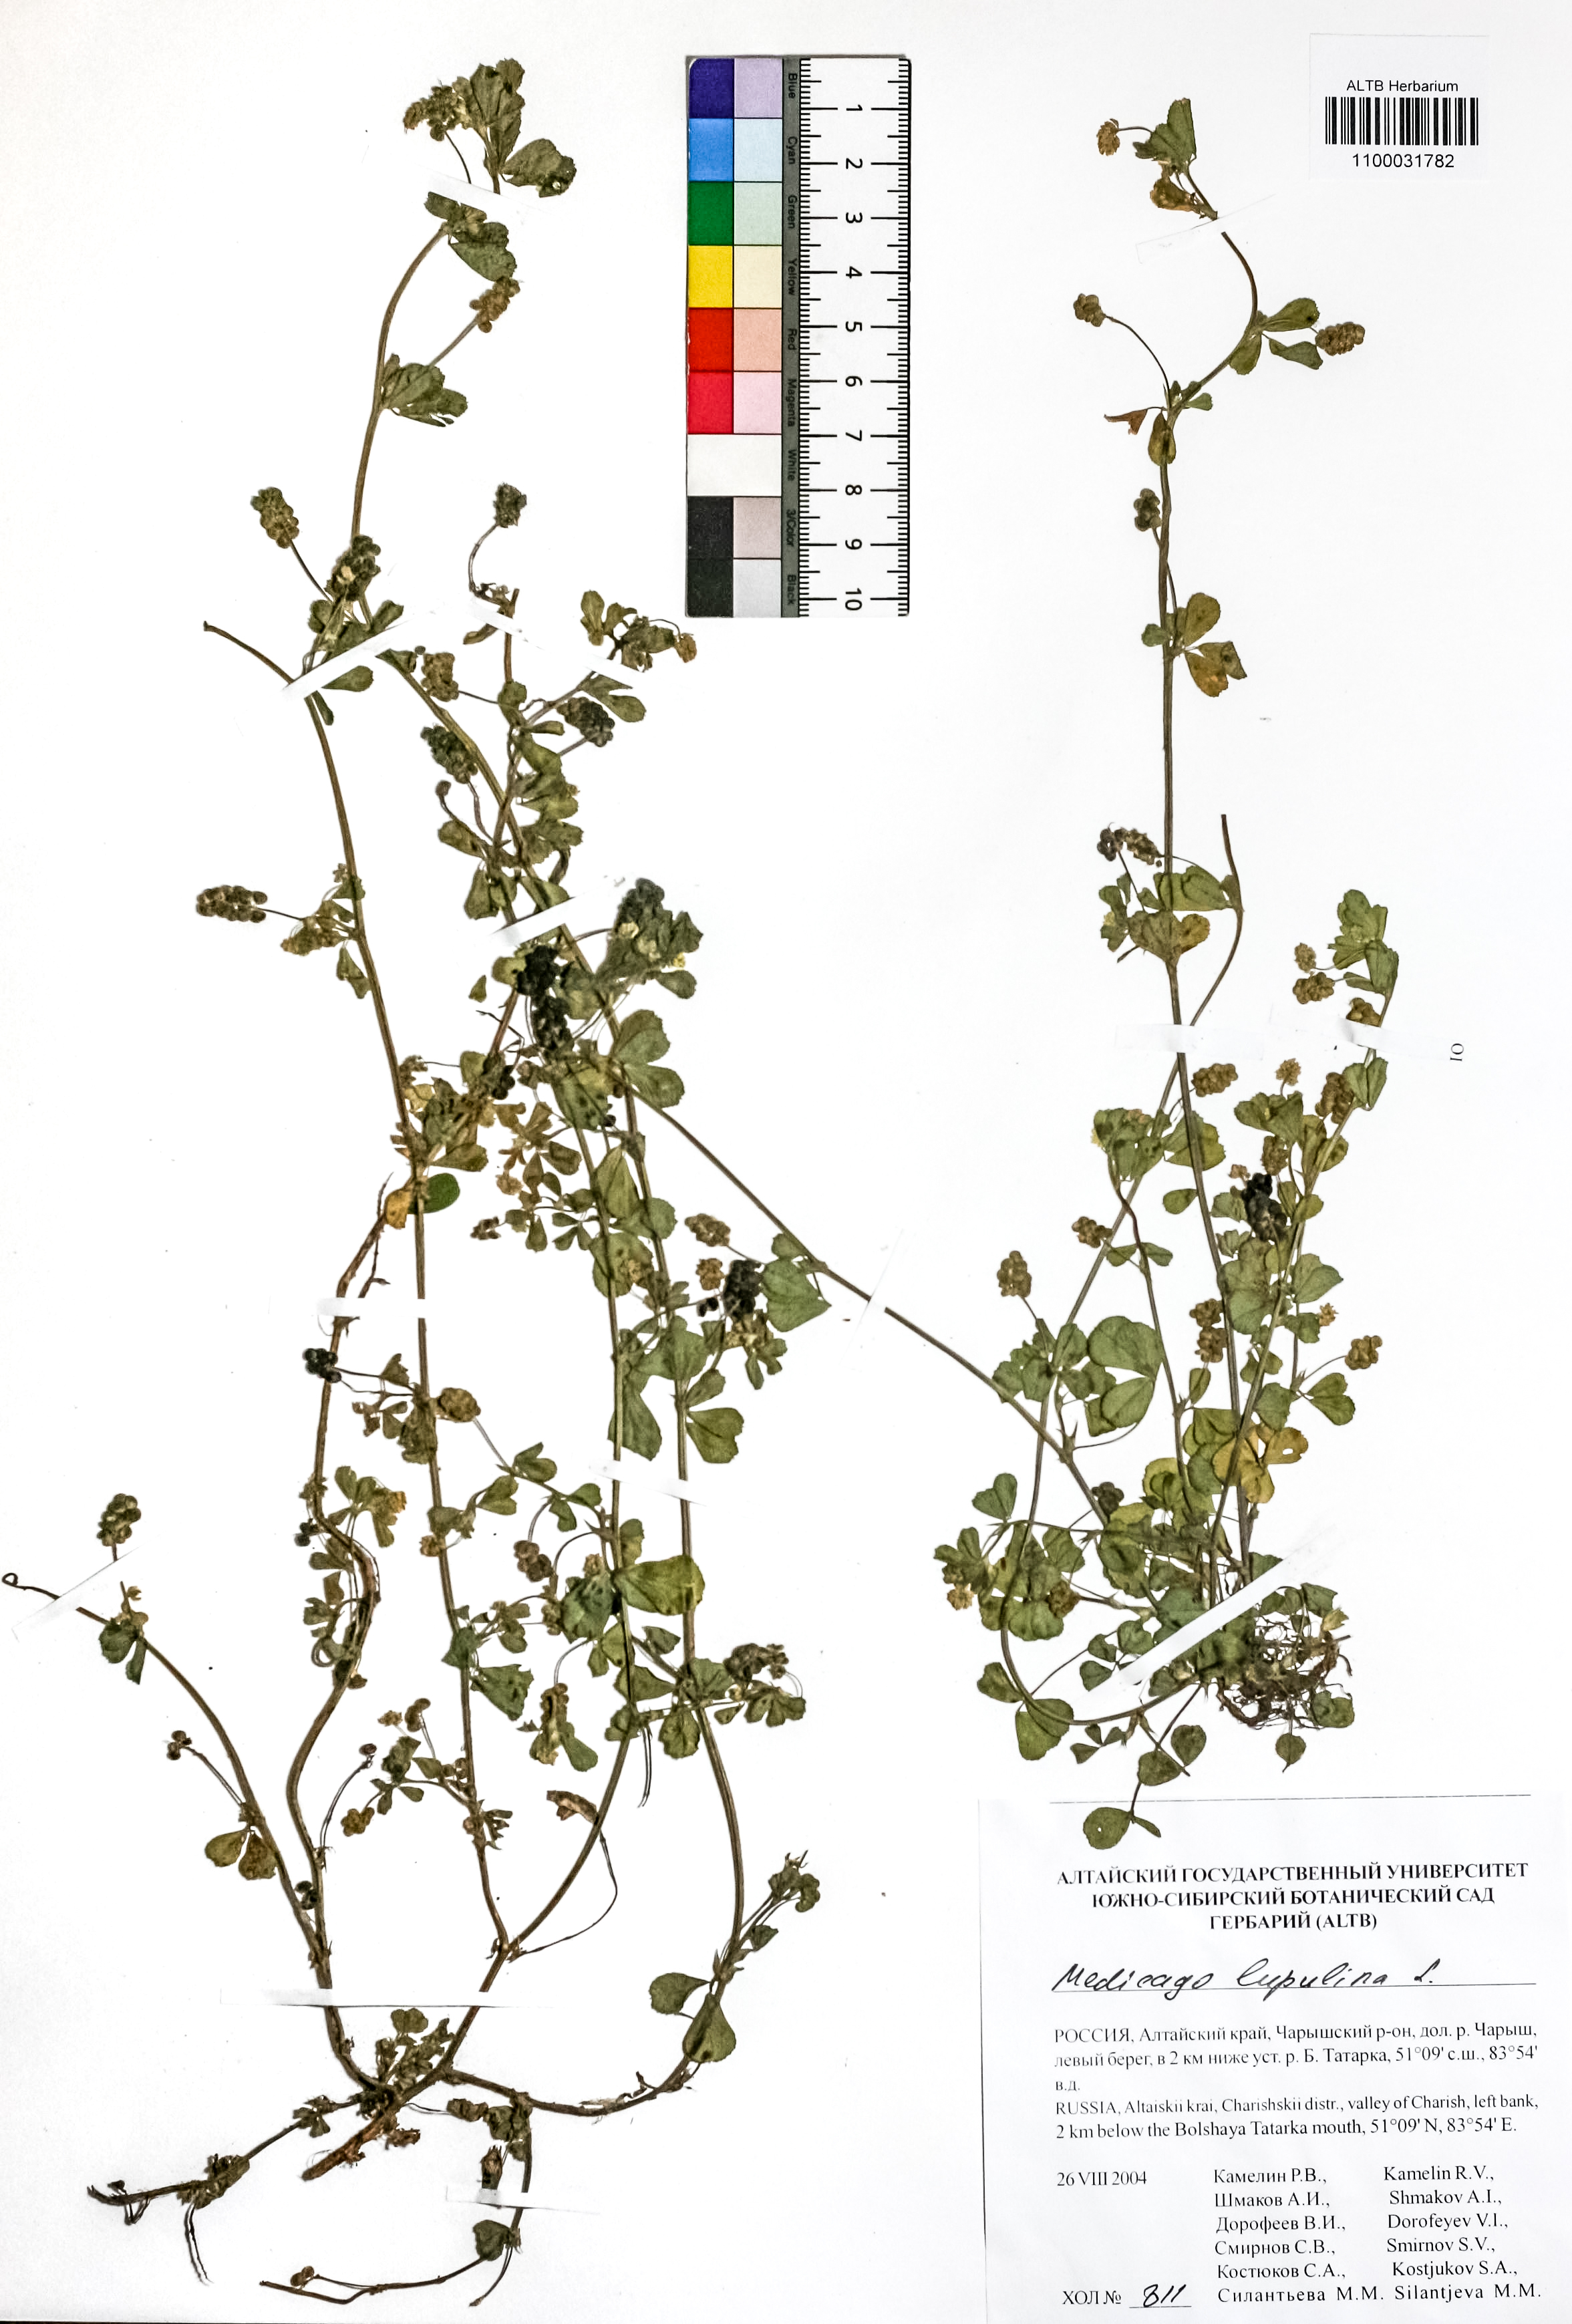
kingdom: Plantae
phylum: Tracheophyta
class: Magnoliopsida
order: Fabales
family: Fabaceae
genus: Medicago
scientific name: Medicago lupulina
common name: Black medick
